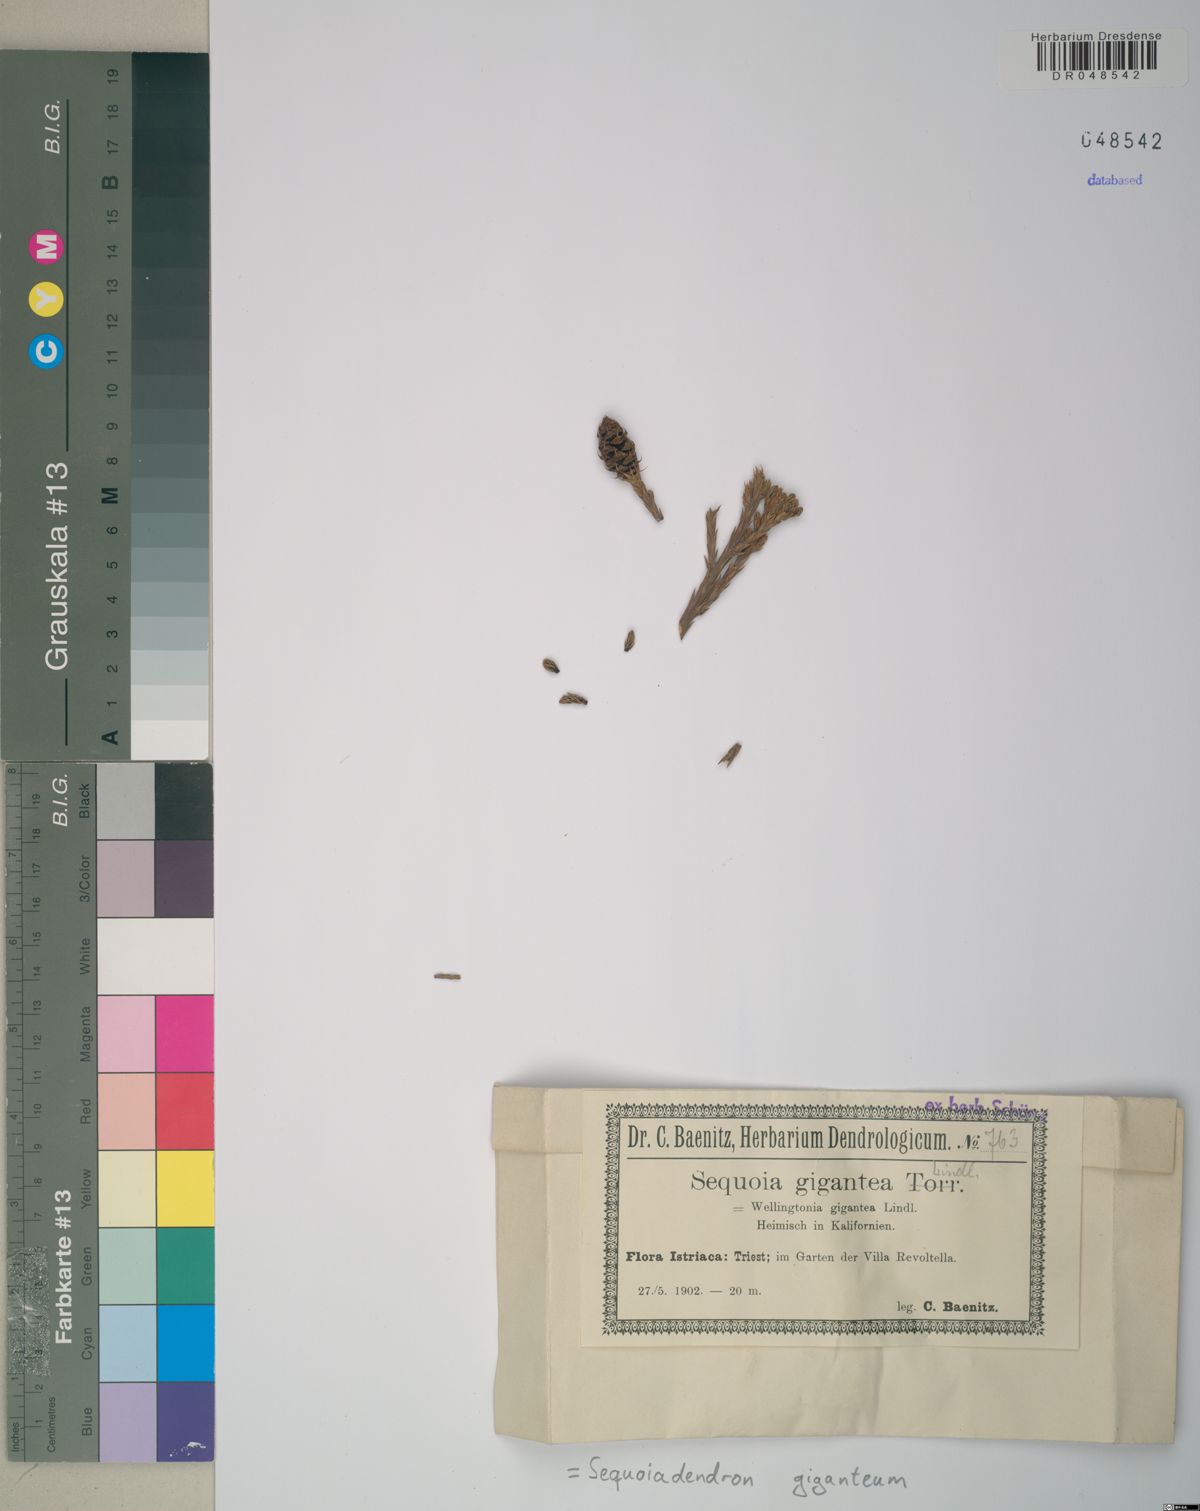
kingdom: Plantae
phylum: Tracheophyta
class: Pinopsida
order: Pinales
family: Cupressaceae
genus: Sequoiadendron
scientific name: Sequoiadendron giganteum
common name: Wellingtonia
